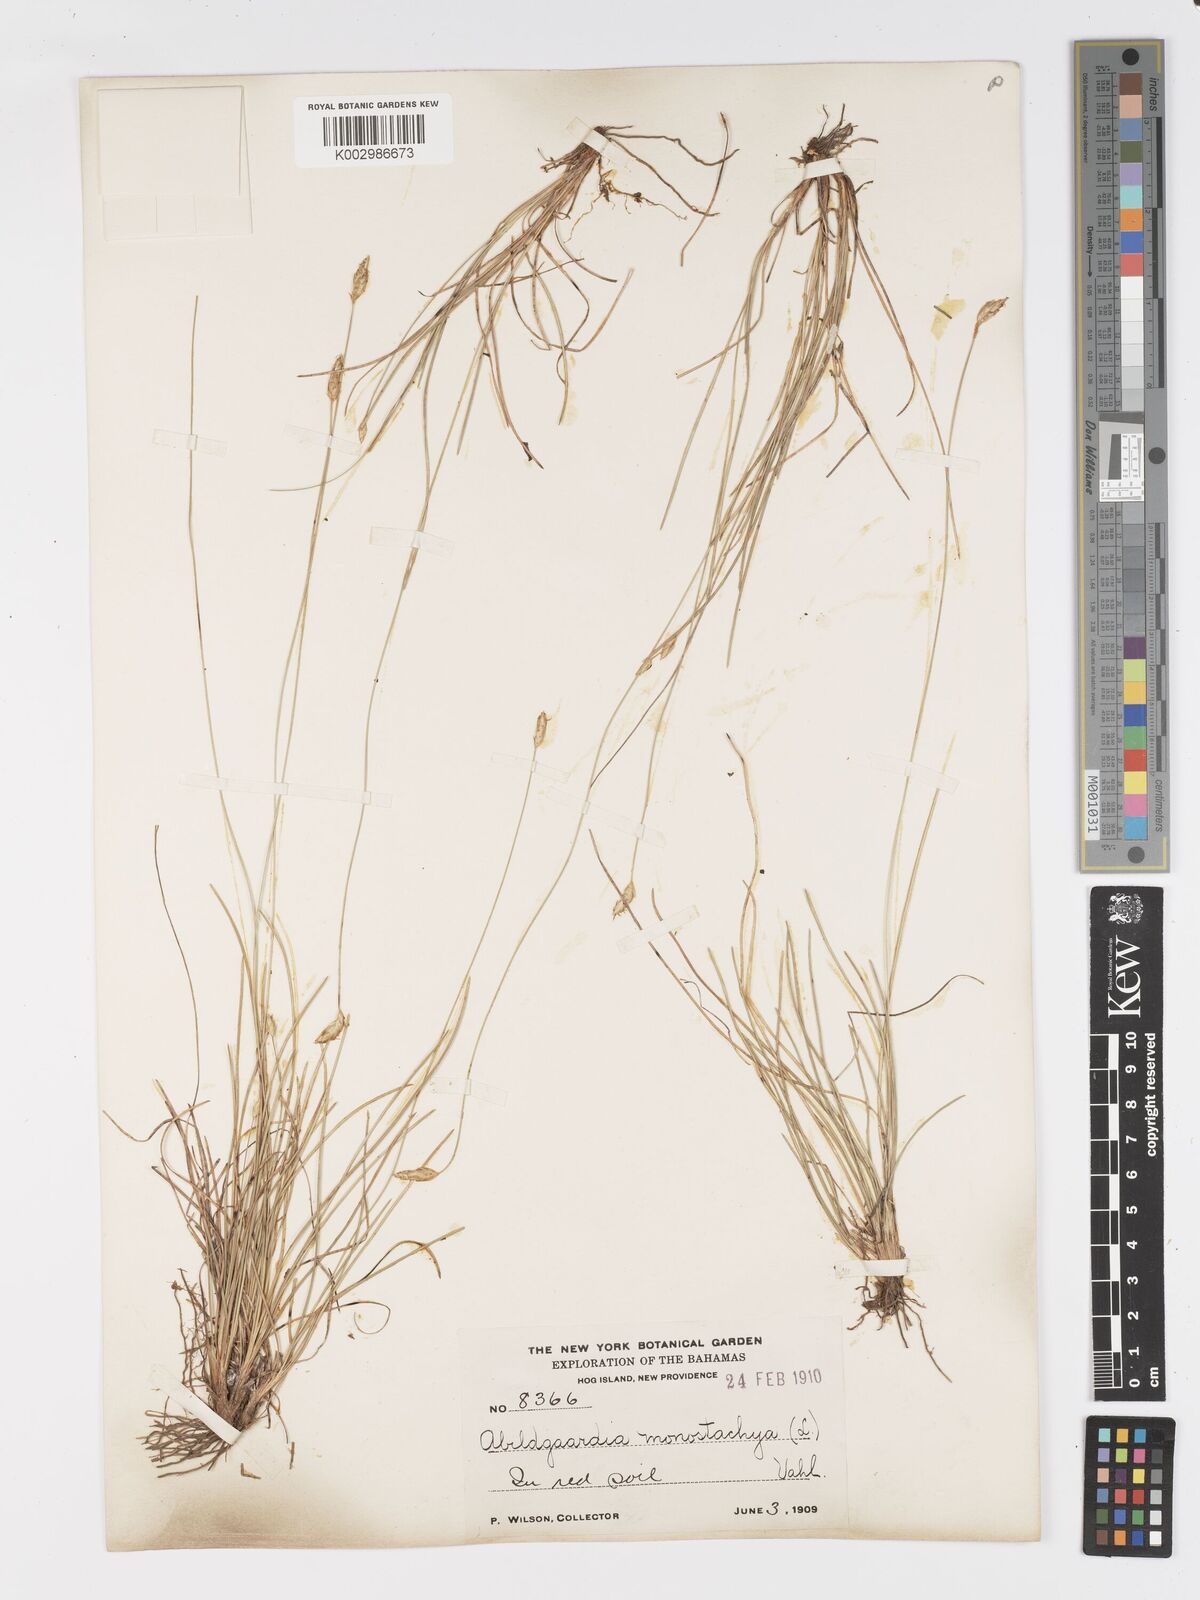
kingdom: Plantae
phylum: Tracheophyta
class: Liliopsida
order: Poales
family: Cyperaceae
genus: Abildgaardia
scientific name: Abildgaardia ovata
